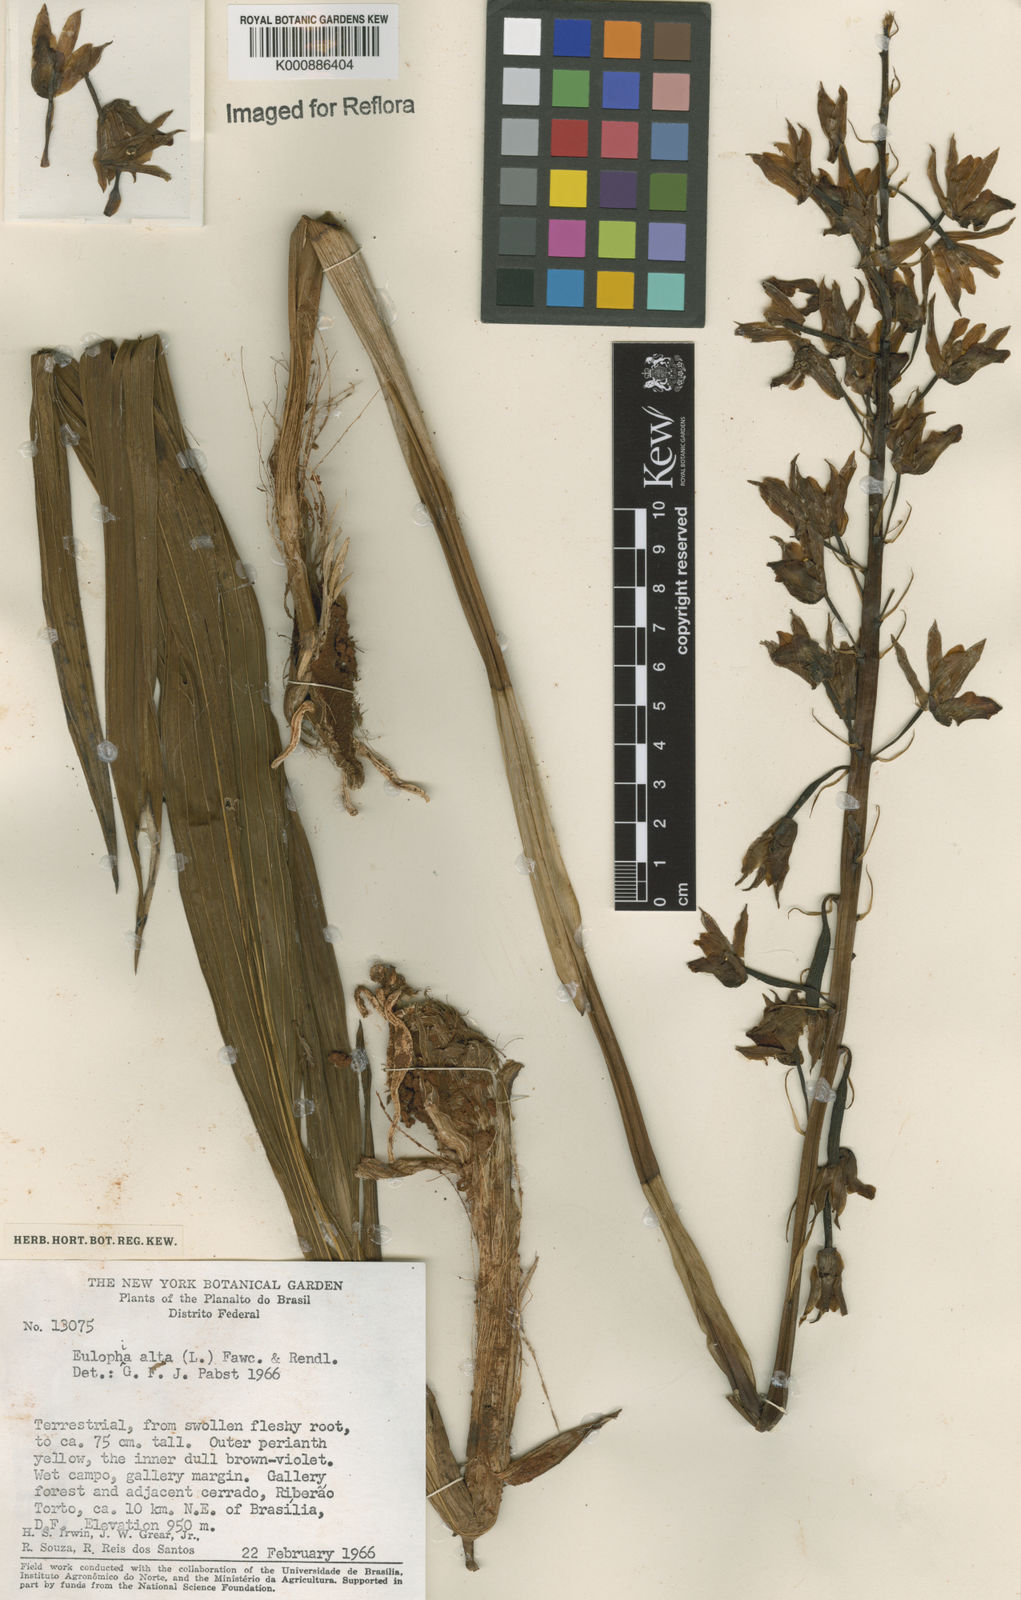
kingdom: Plantae
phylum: Tracheophyta
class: Liliopsida
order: Asparagales
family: Orchidaceae
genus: Eulophia
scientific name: Eulophia alta
